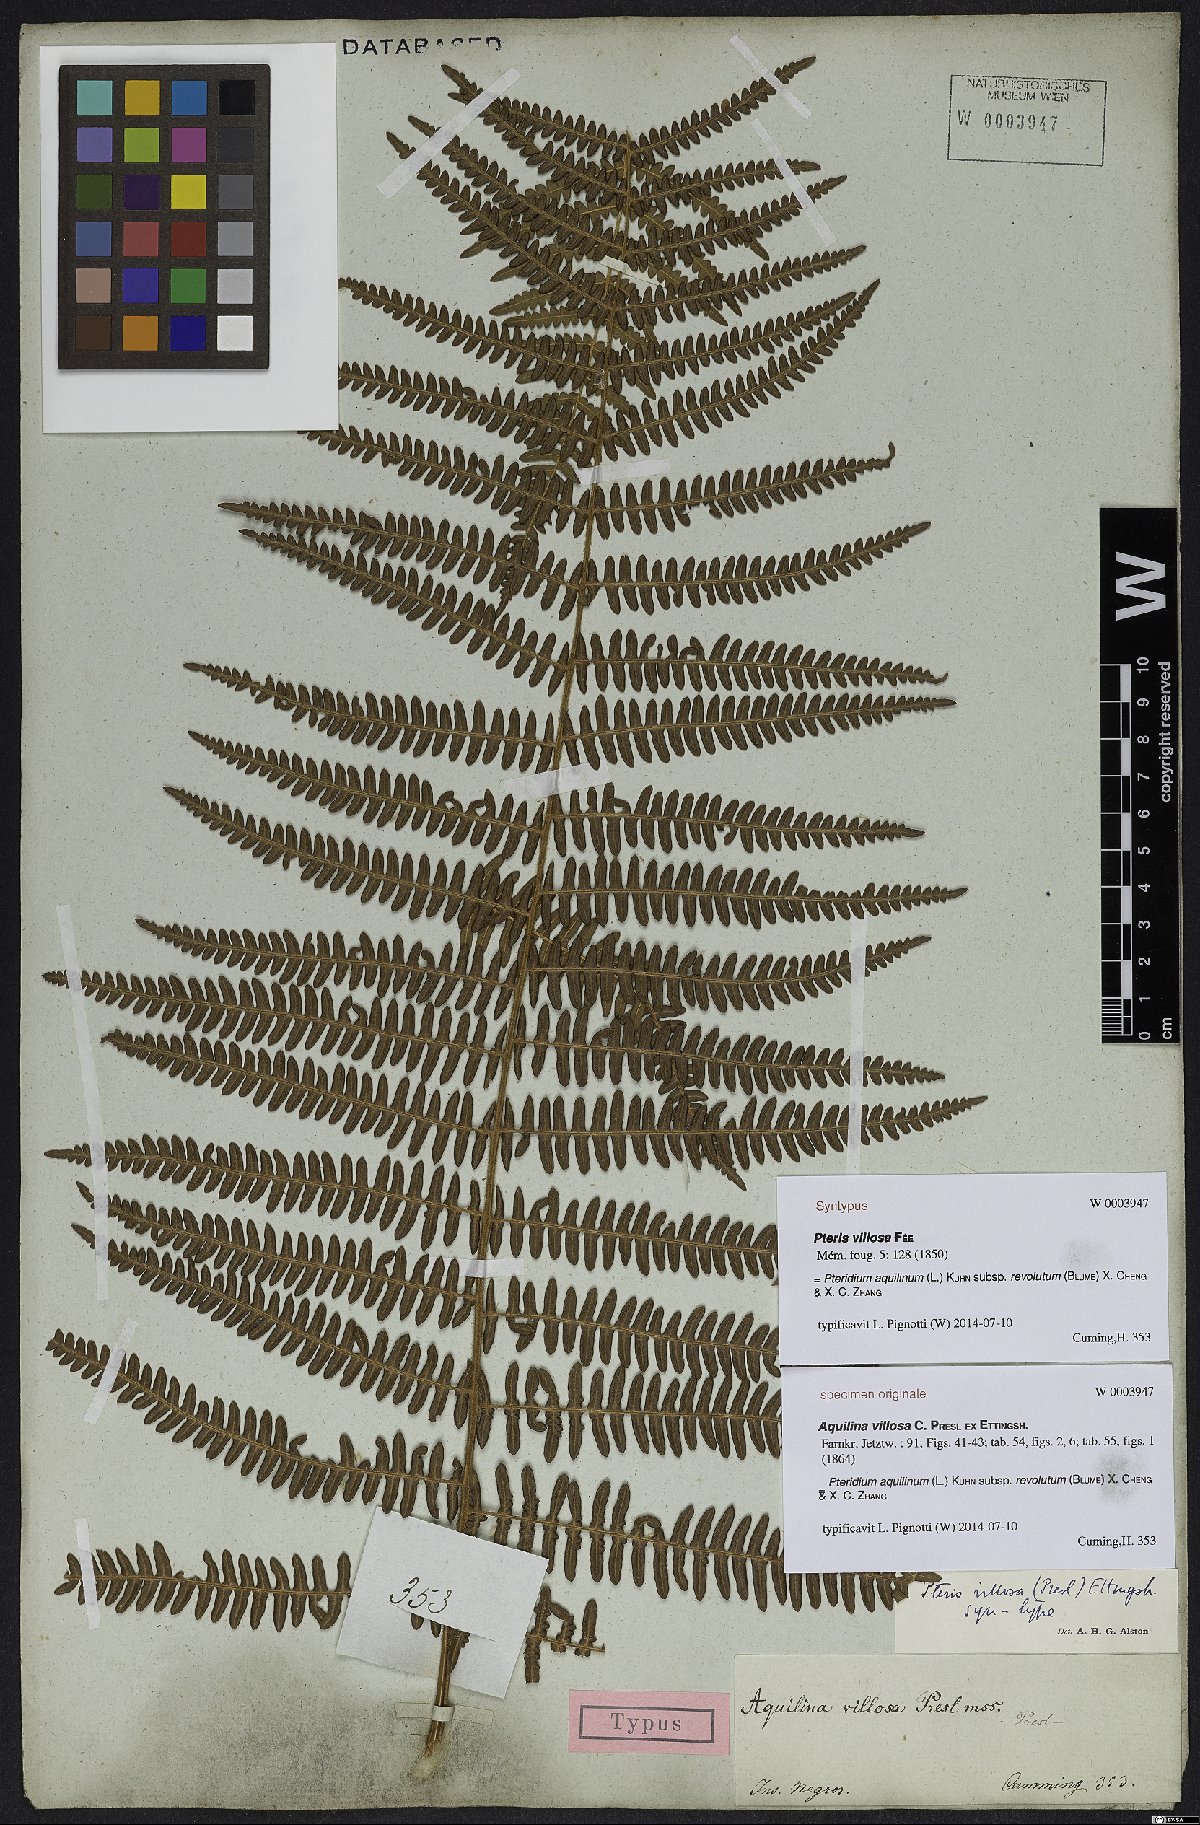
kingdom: Plantae
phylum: Tracheophyta
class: Polypodiopsida
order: Polypodiales
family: Dennstaedtiaceae
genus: Pteridium
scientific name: Pteridium aquilinum
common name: Bracken
